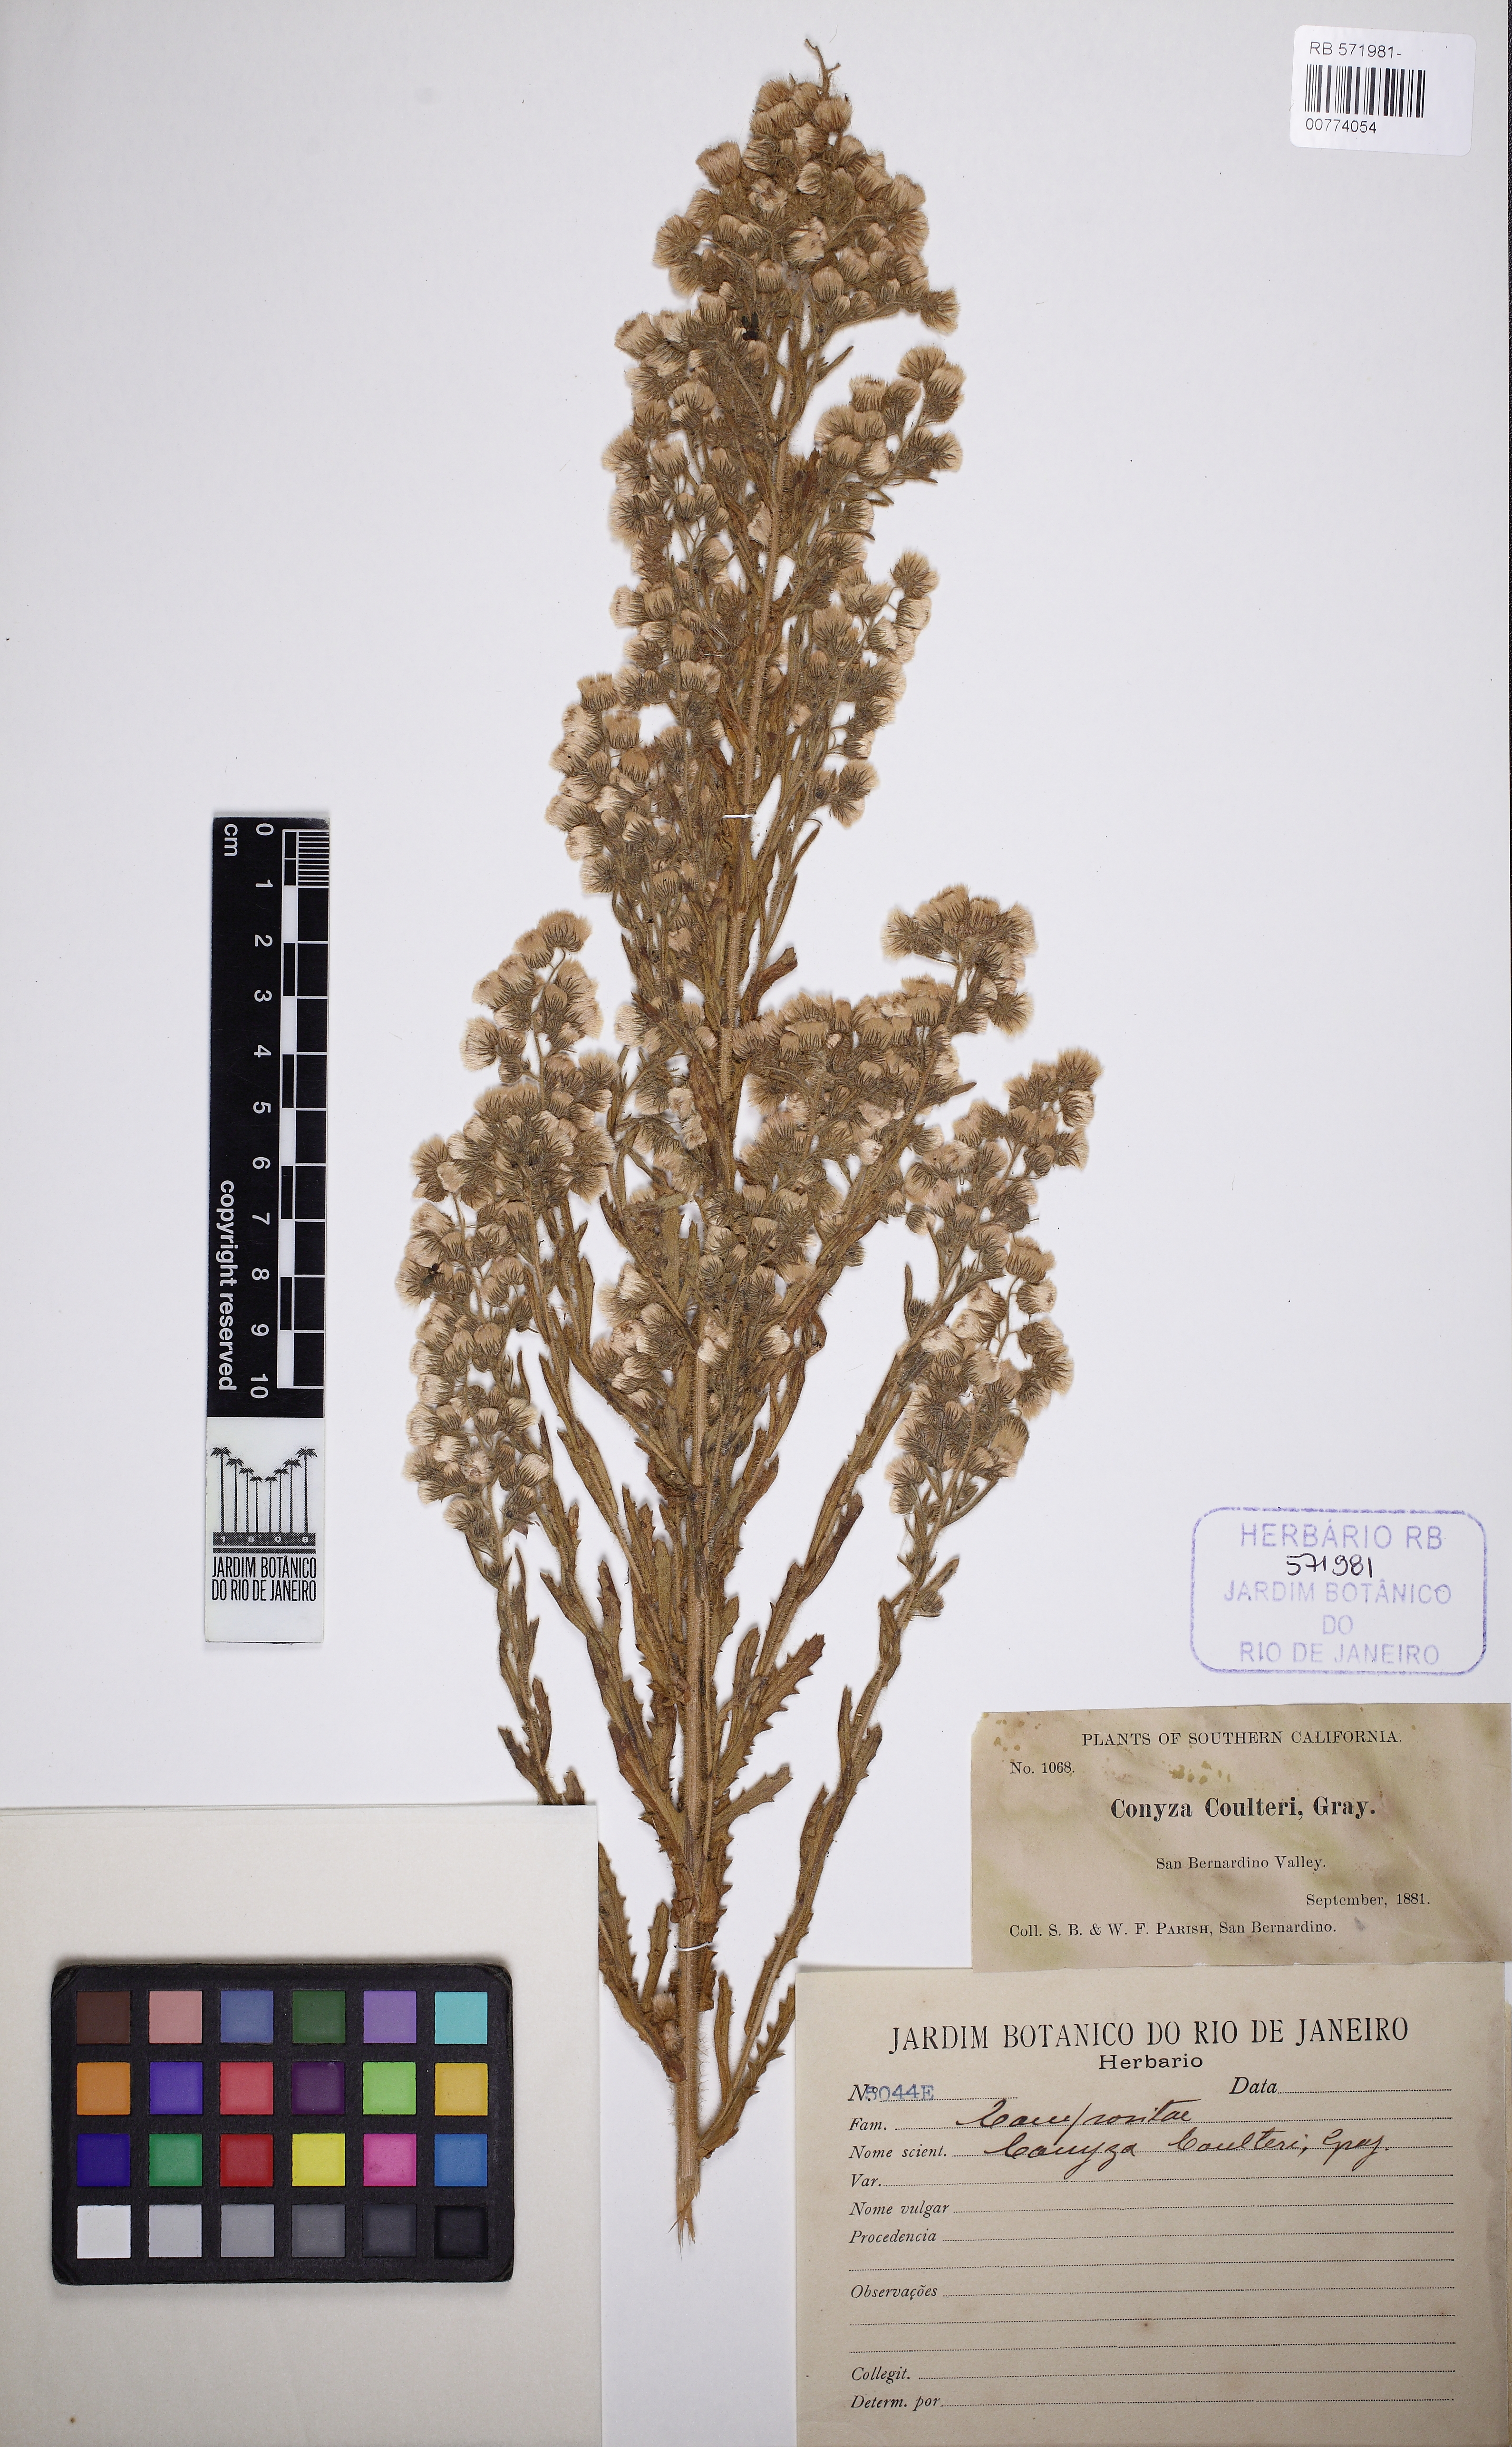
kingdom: Plantae
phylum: Tracheophyta
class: Magnoliopsida
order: Asterales
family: Asteraceae
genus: Laennecia
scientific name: Laennecia coulteri
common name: Coulter's woolwort
